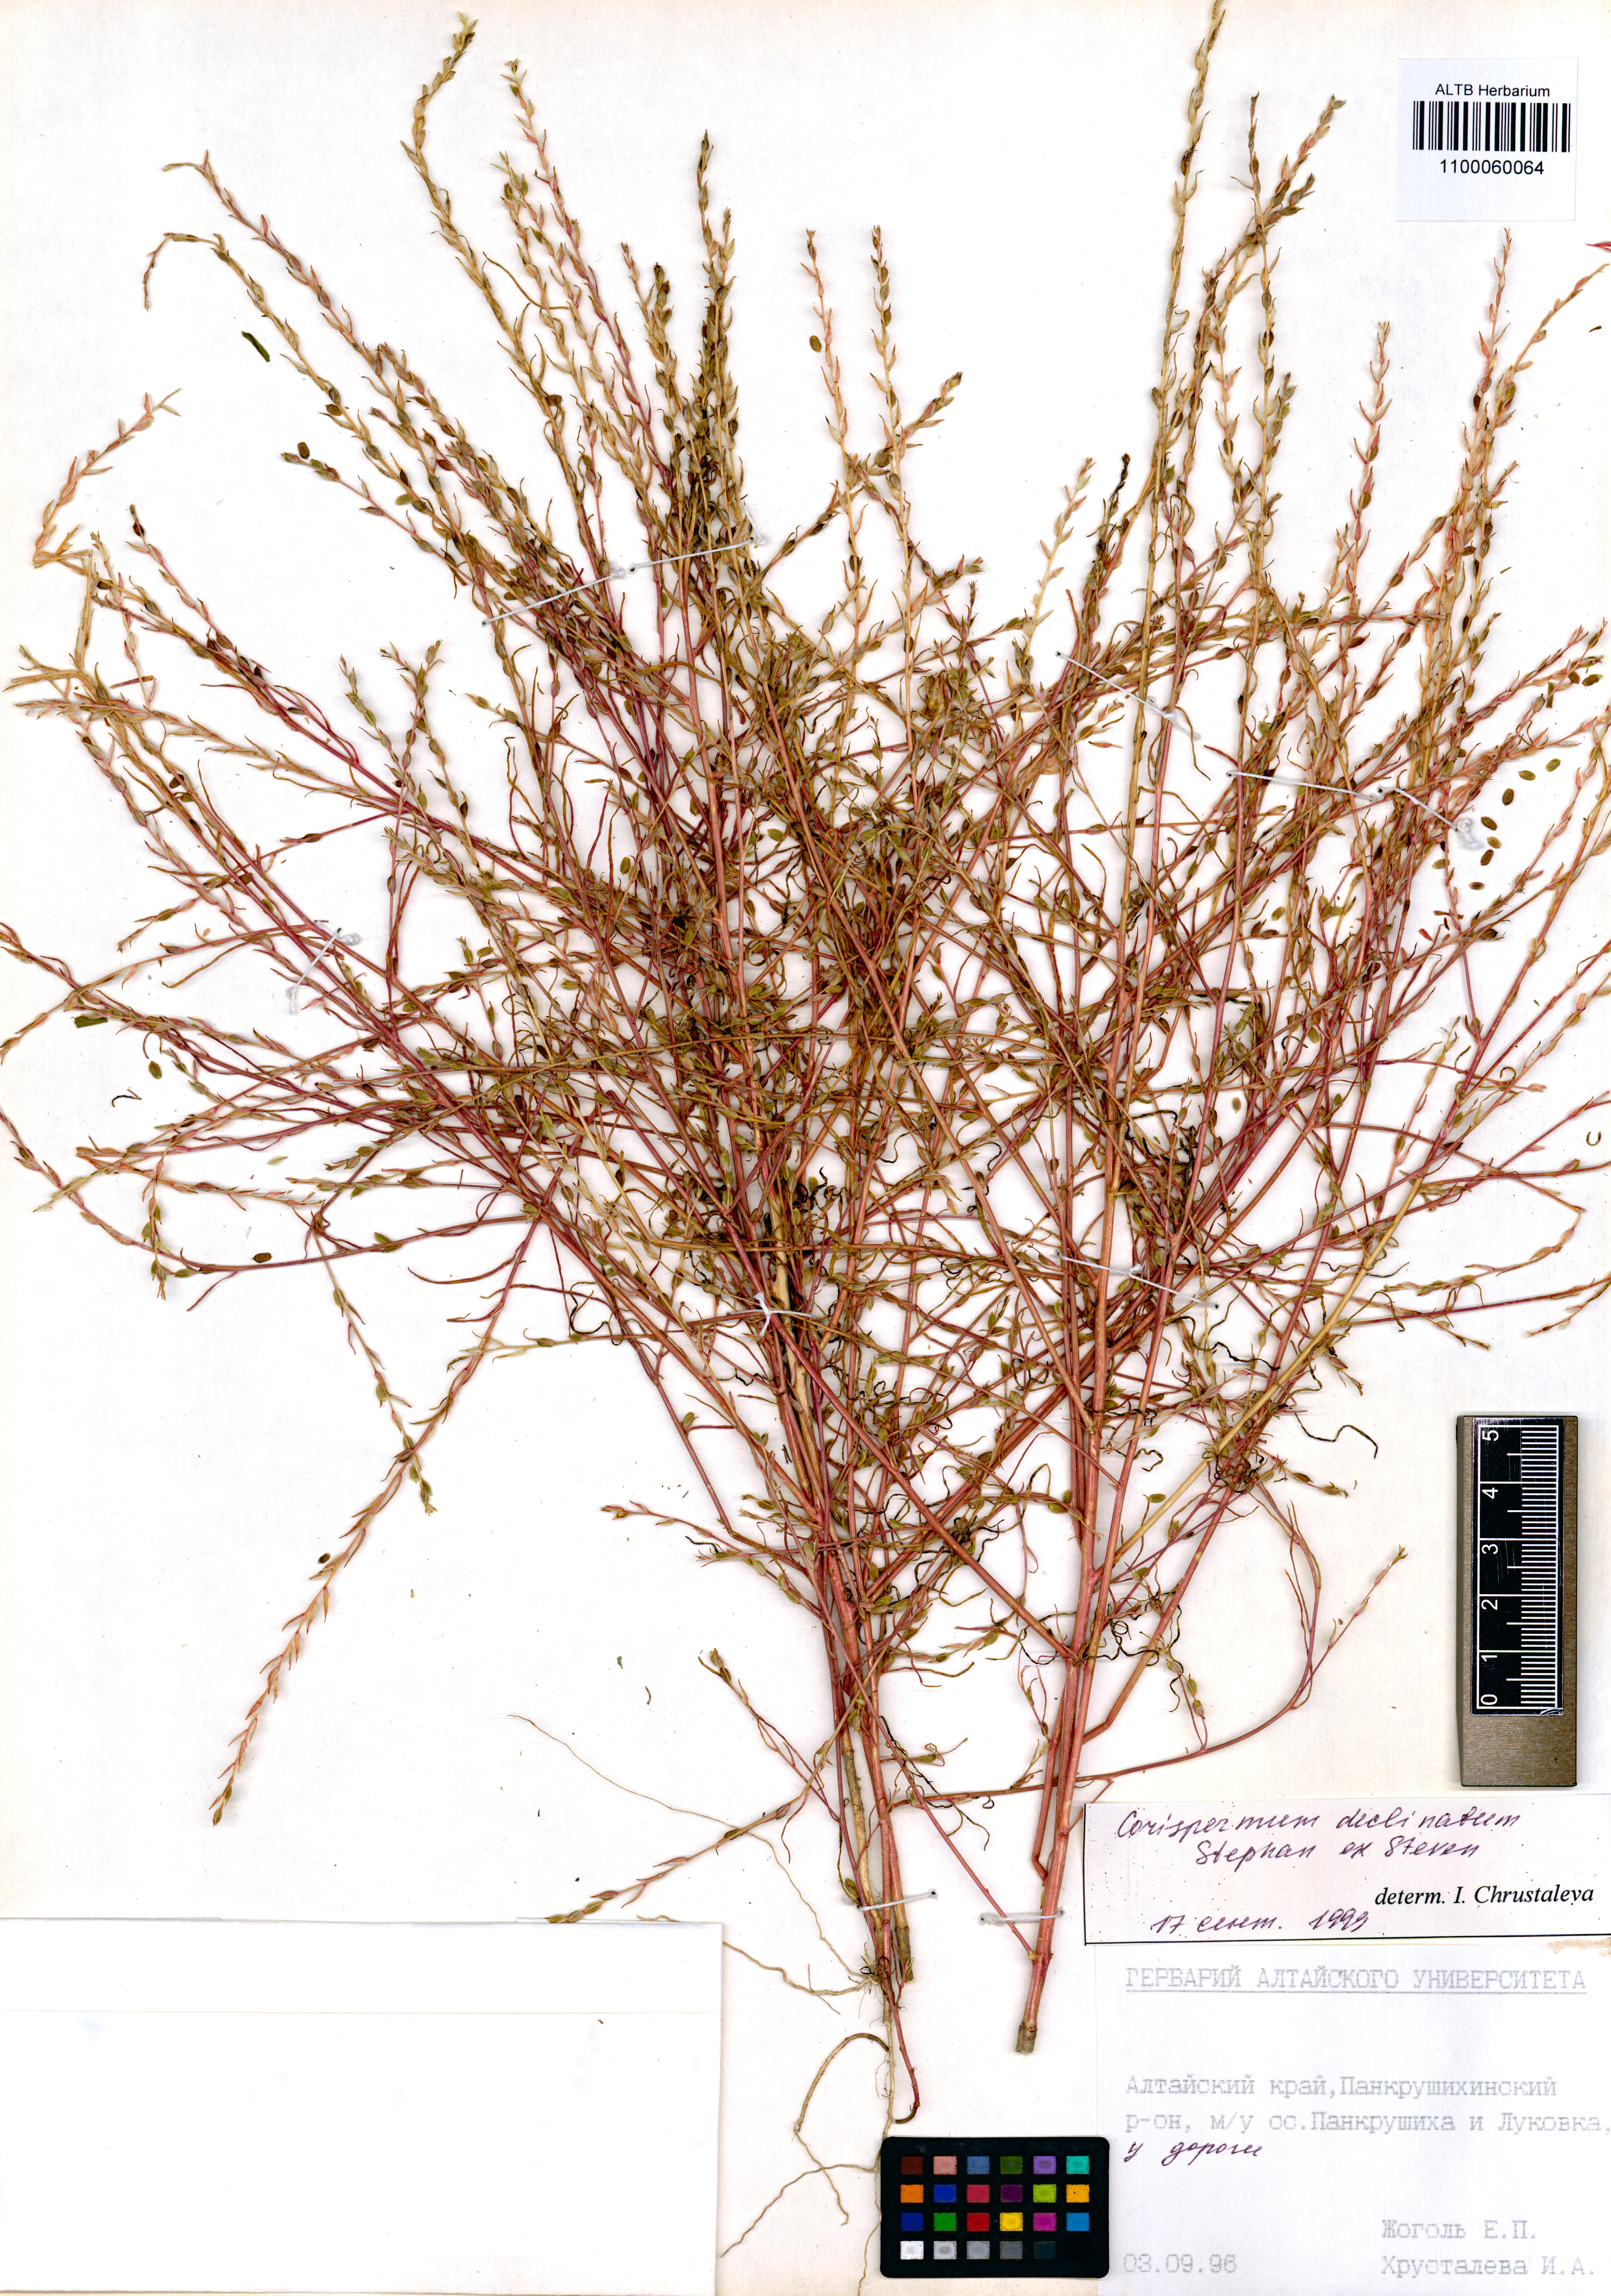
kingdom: Plantae
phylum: Tracheophyta
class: Magnoliopsida
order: Caryophyllales
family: Amaranthaceae
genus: Corispermum
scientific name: Corispermum declinatum
